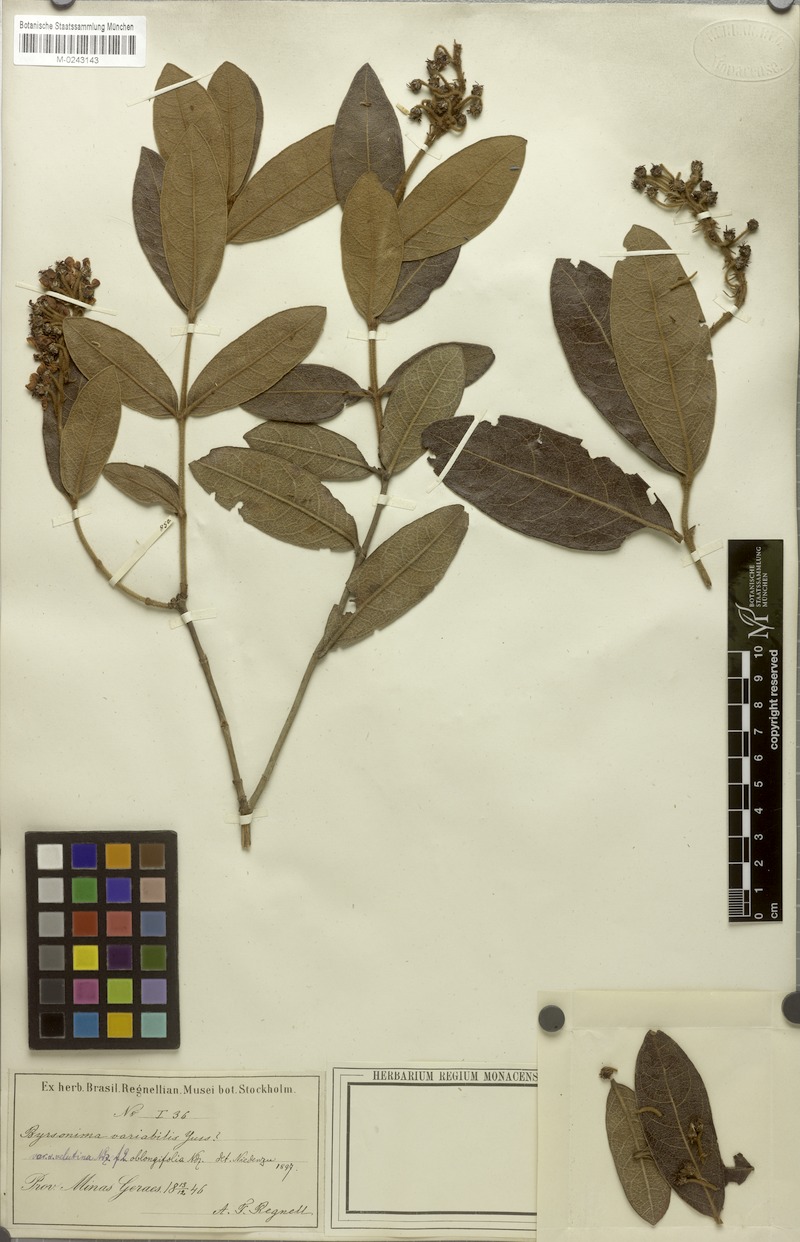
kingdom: Plantae
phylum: Tracheophyta
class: Magnoliopsida
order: Malpighiales
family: Malpighiaceae
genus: Byrsonima
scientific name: Byrsonima variabilis
